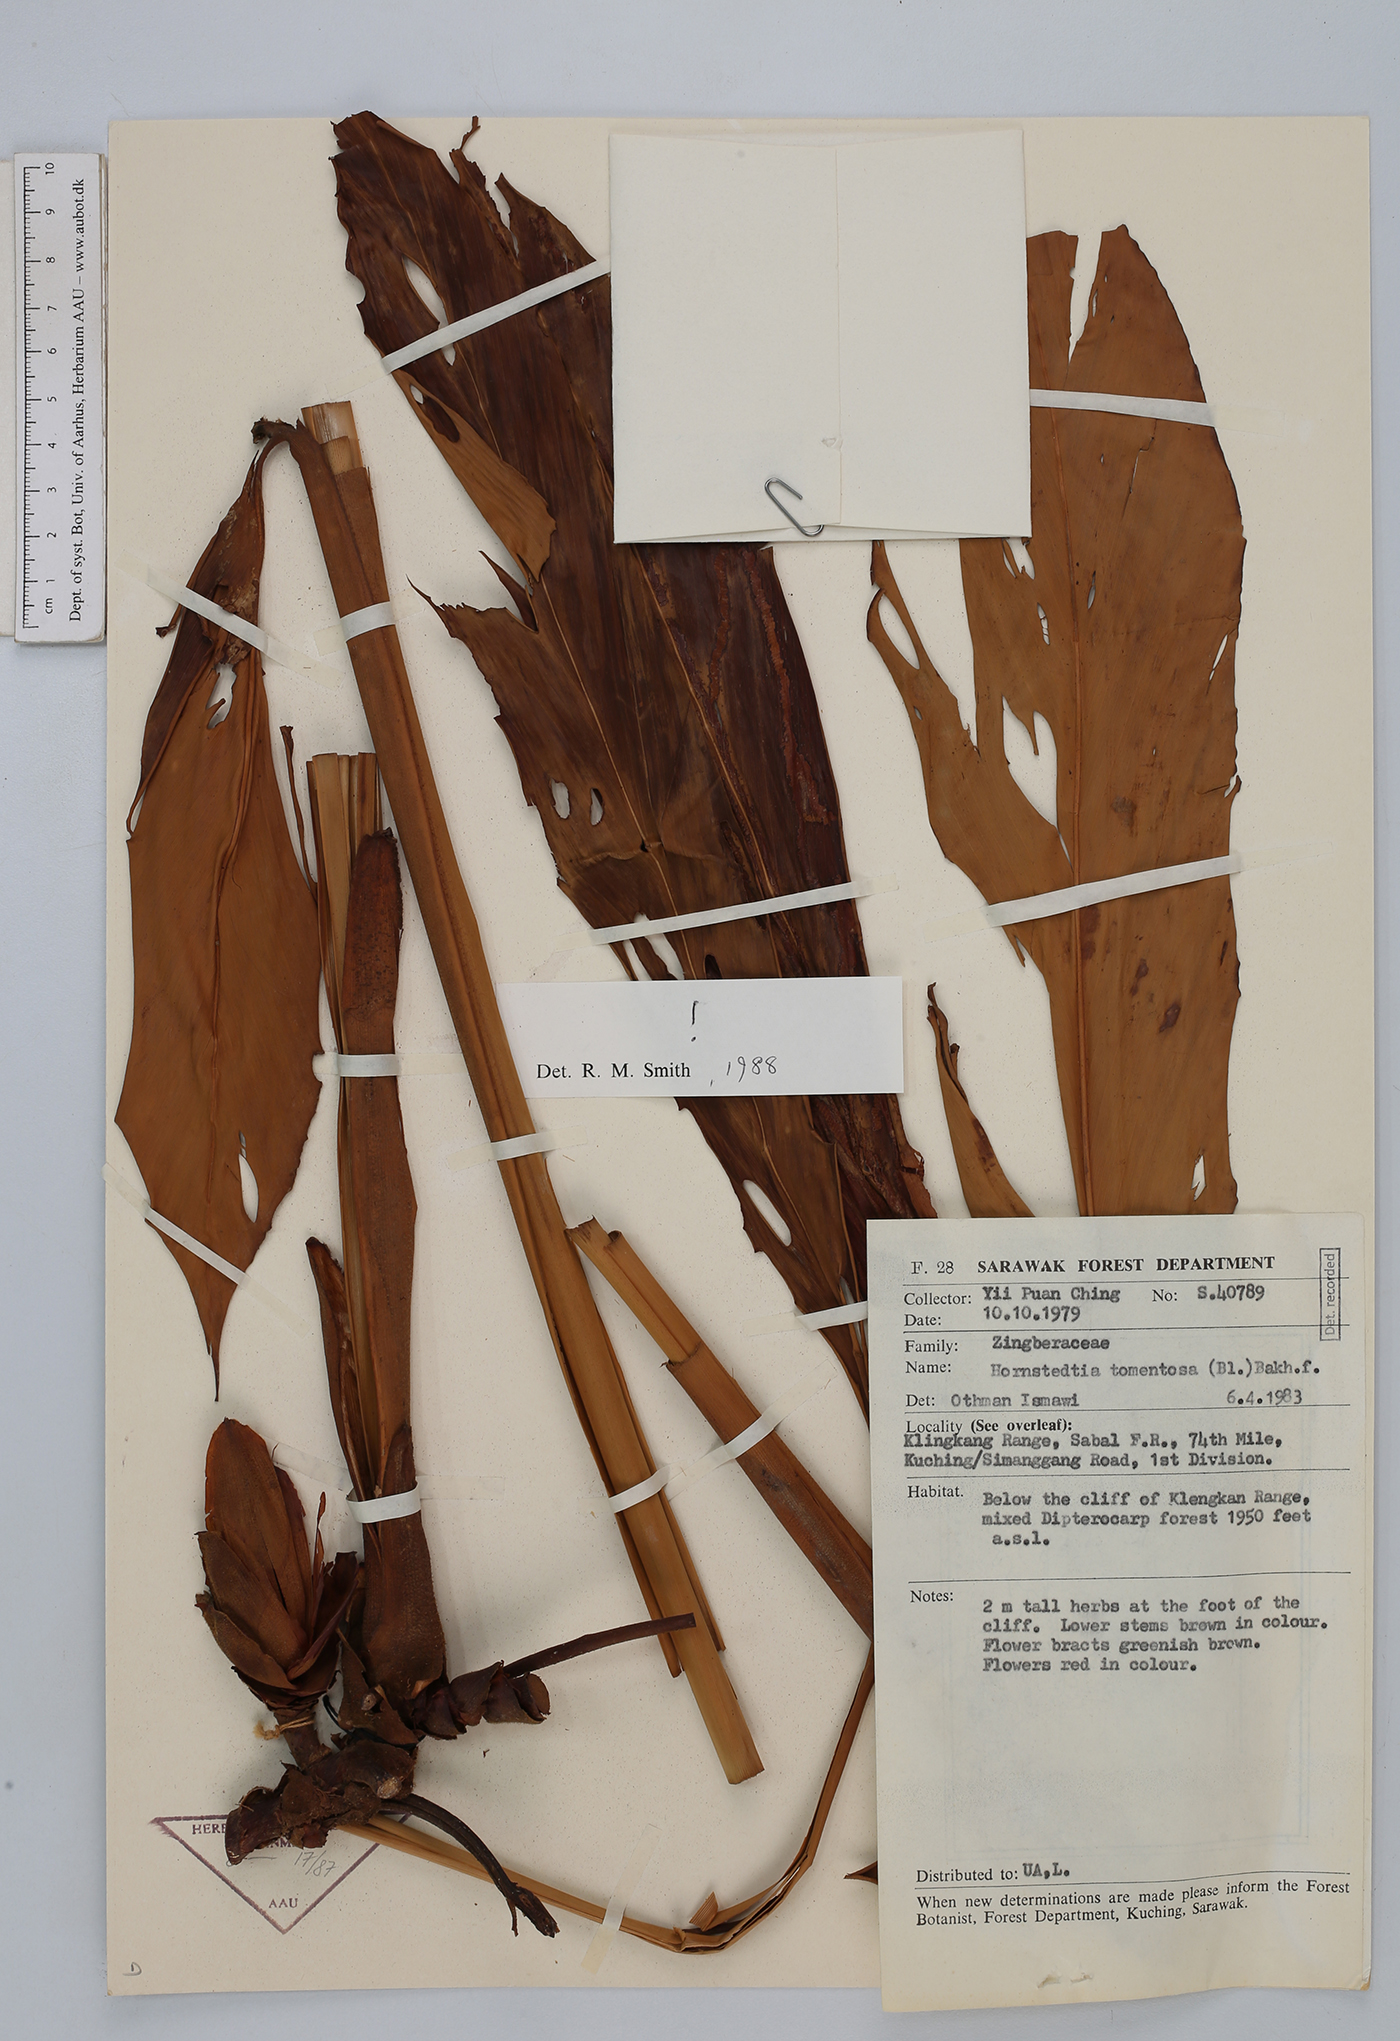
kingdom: Plantae
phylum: Tracheophyta
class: Liliopsida
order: Zingiberales
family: Zingiberaceae
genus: Hornstedtia
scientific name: Hornstedtia tomentosa
